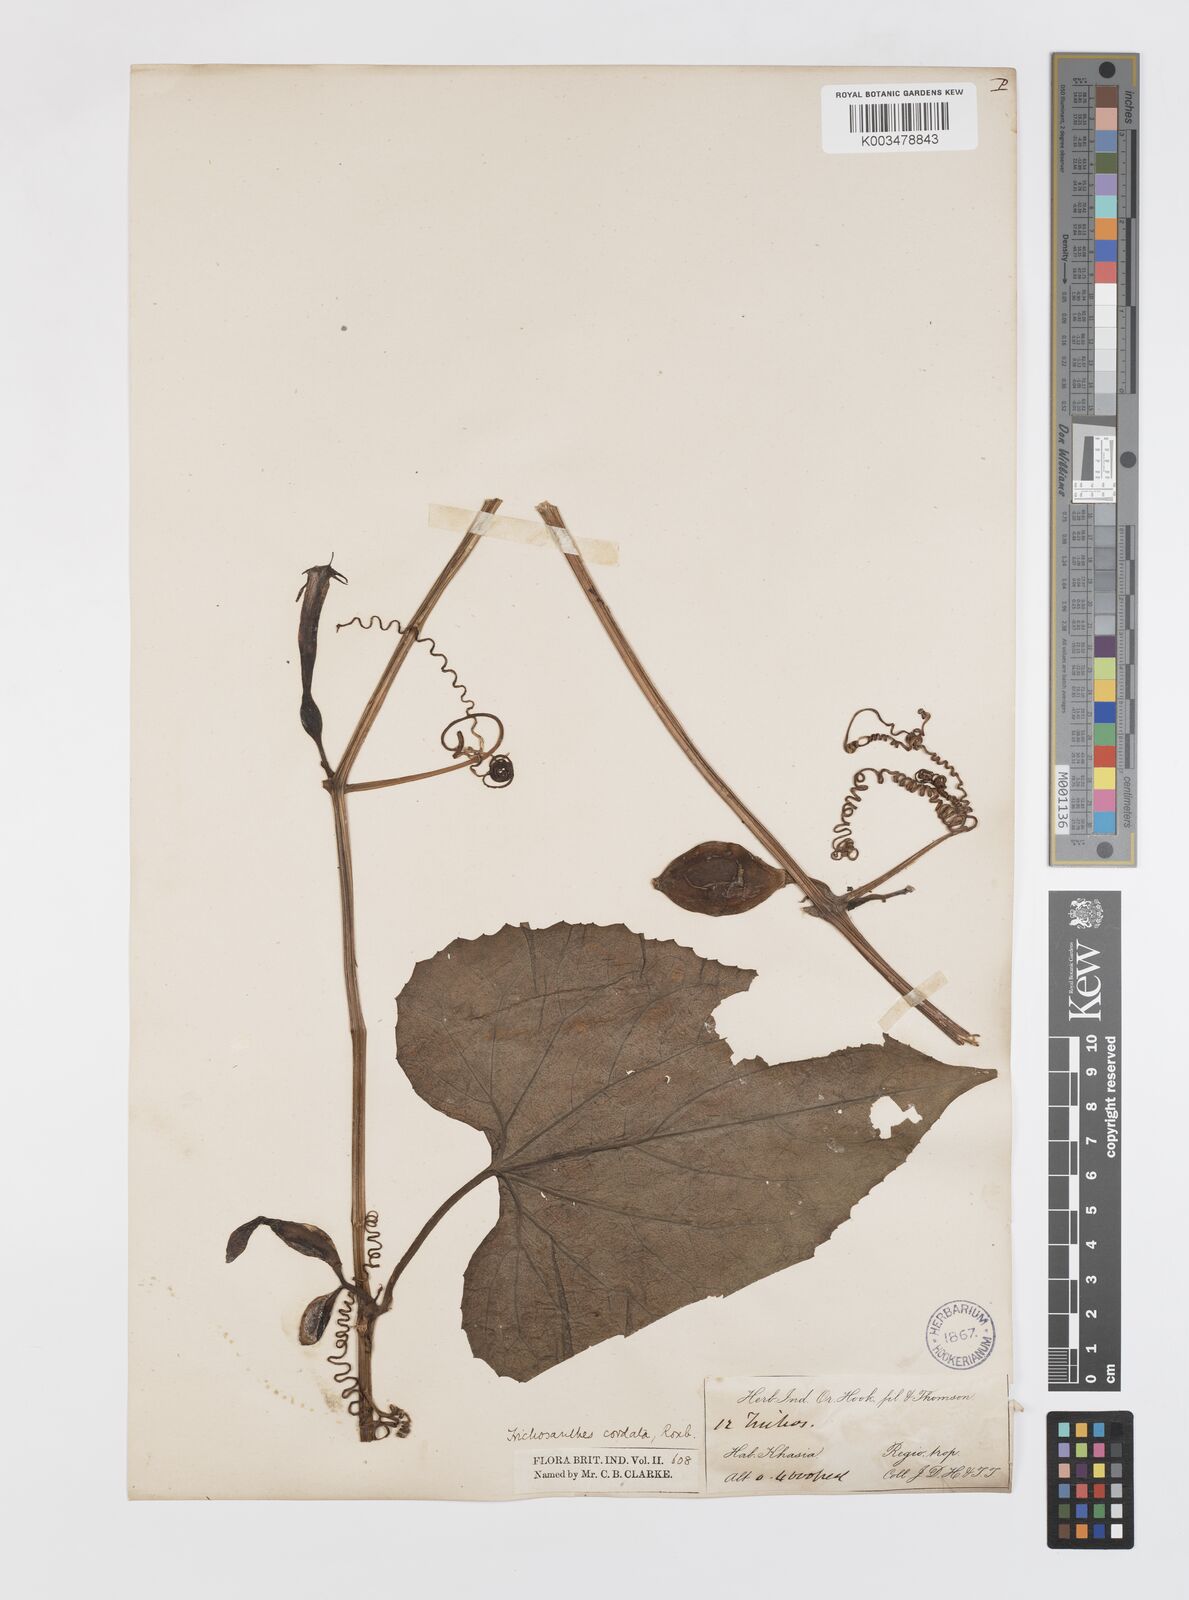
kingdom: Plantae
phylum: Tracheophyta
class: Magnoliopsida
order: Cucurbitales
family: Cucurbitaceae
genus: Trichosanthes
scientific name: Trichosanthes cordata
